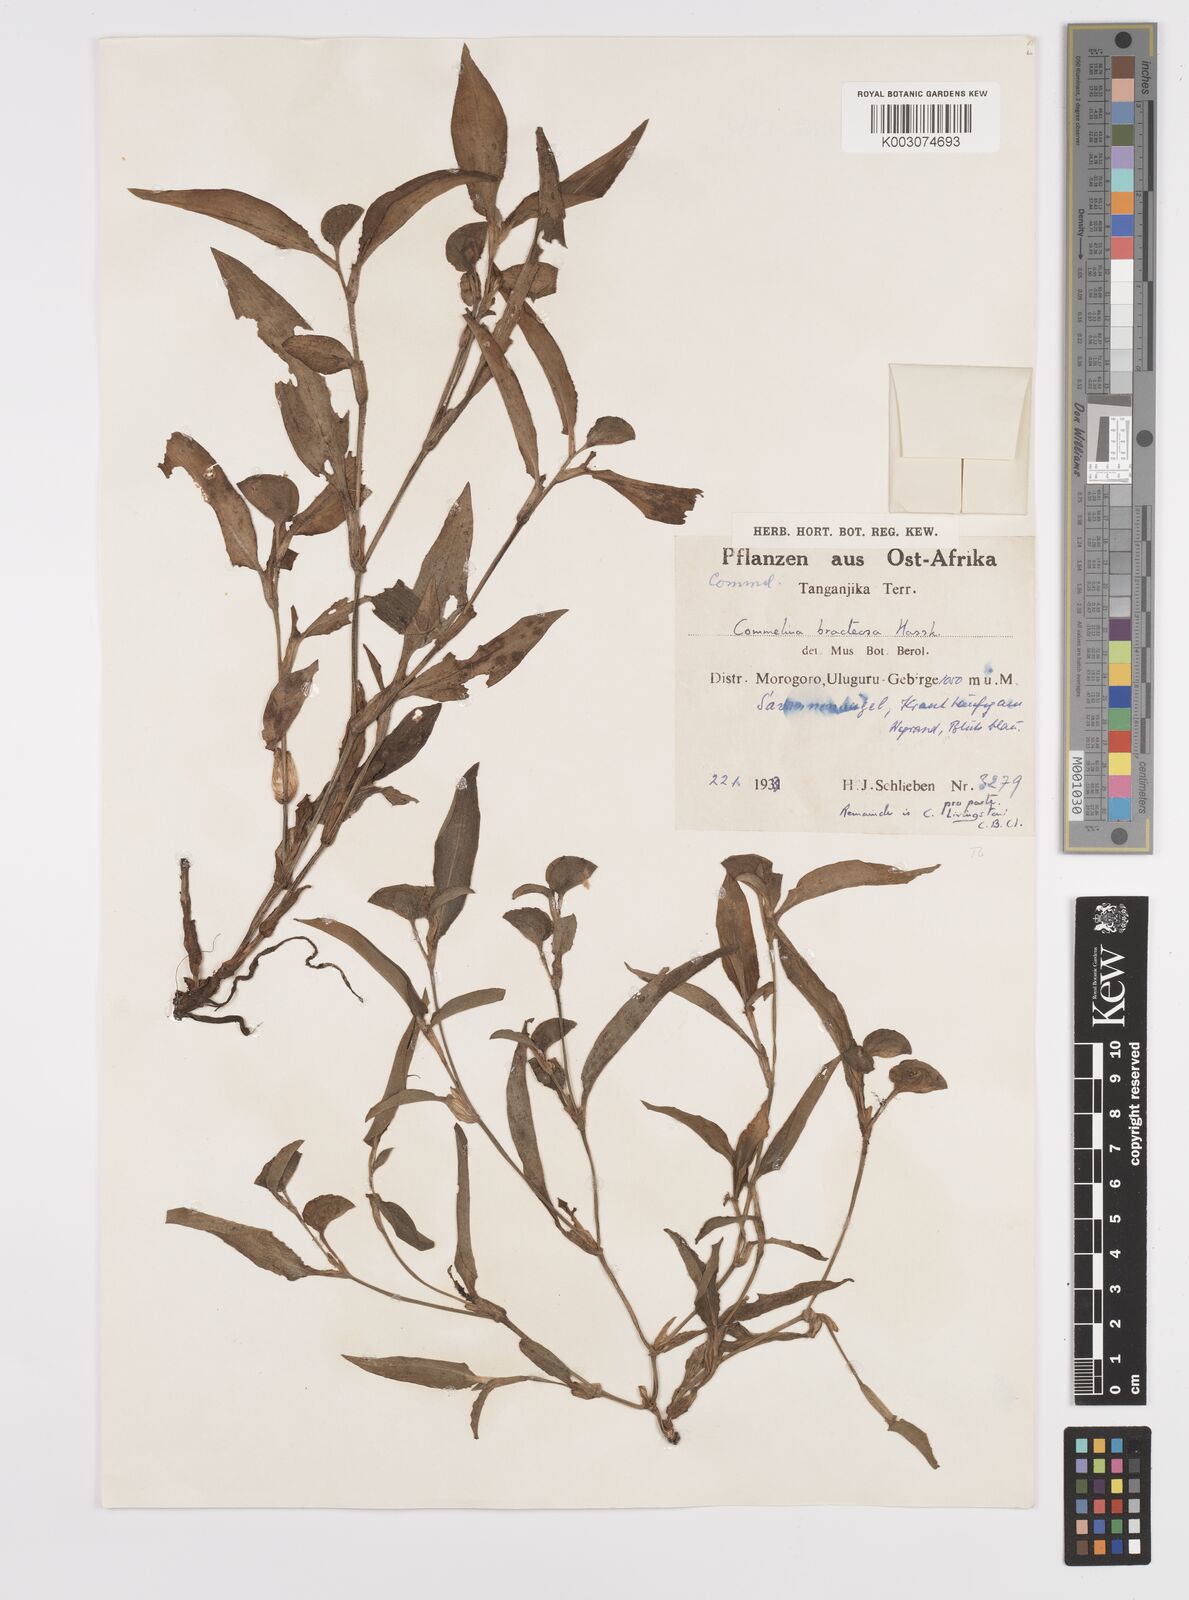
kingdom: Plantae
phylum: Tracheophyta
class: Liliopsida
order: Commelinales
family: Commelinaceae
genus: Commelina
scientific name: Commelina bracteosa
